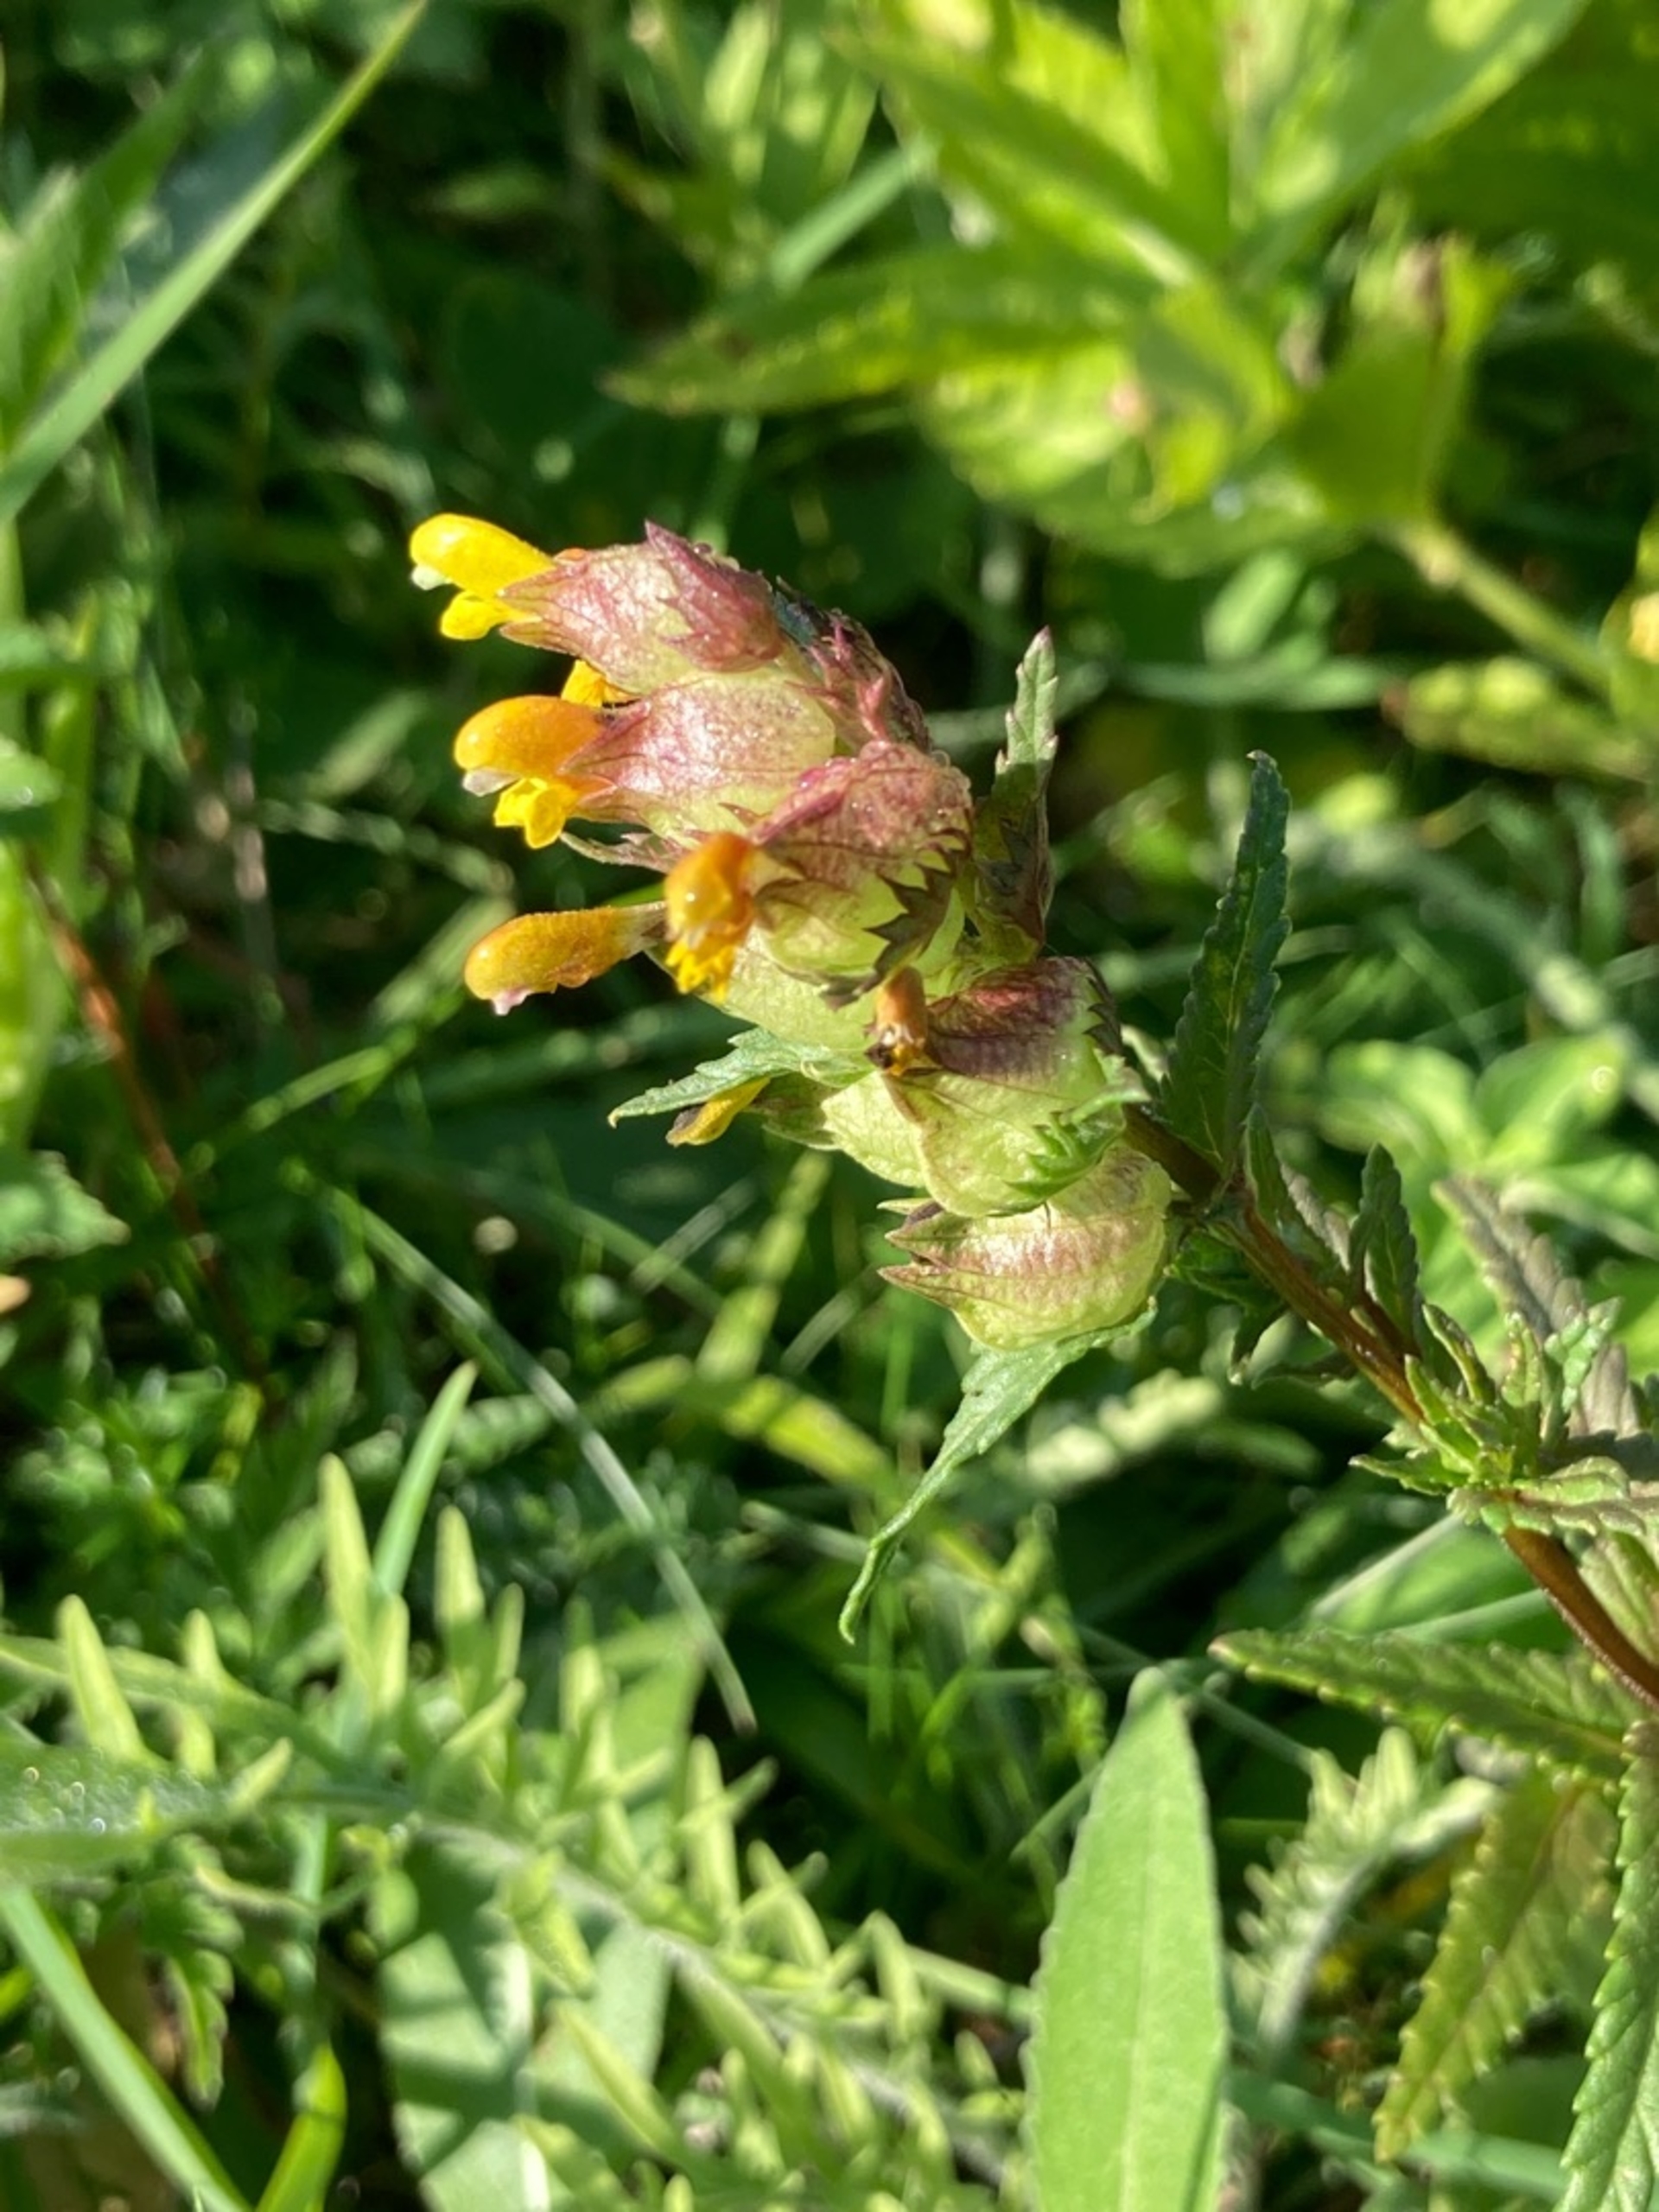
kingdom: Plantae
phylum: Tracheophyta
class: Magnoliopsida
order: Lamiales
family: Orobanchaceae
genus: Rhinanthus
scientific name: Rhinanthus minor
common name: Liden skjaller
